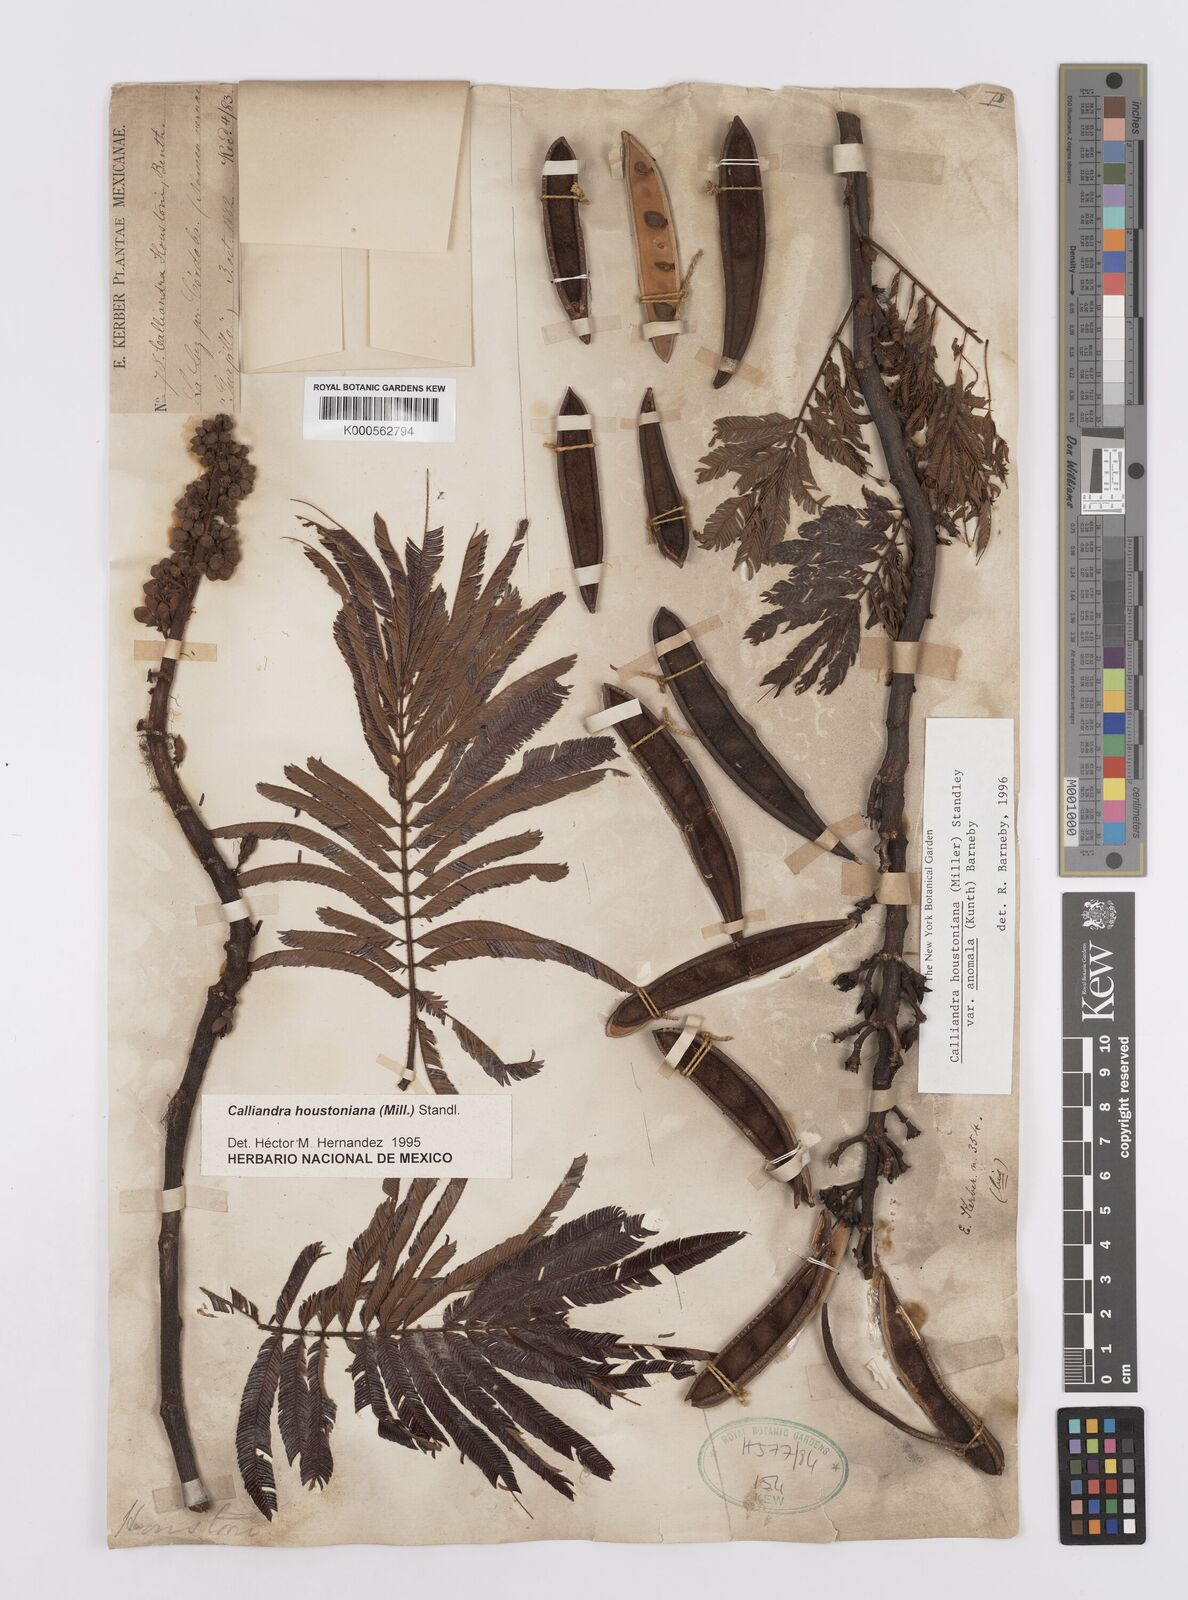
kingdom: Plantae
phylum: Tracheophyta
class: Magnoliopsida
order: Fabales
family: Fabaceae
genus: Calliandra
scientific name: Calliandra houstoniana
